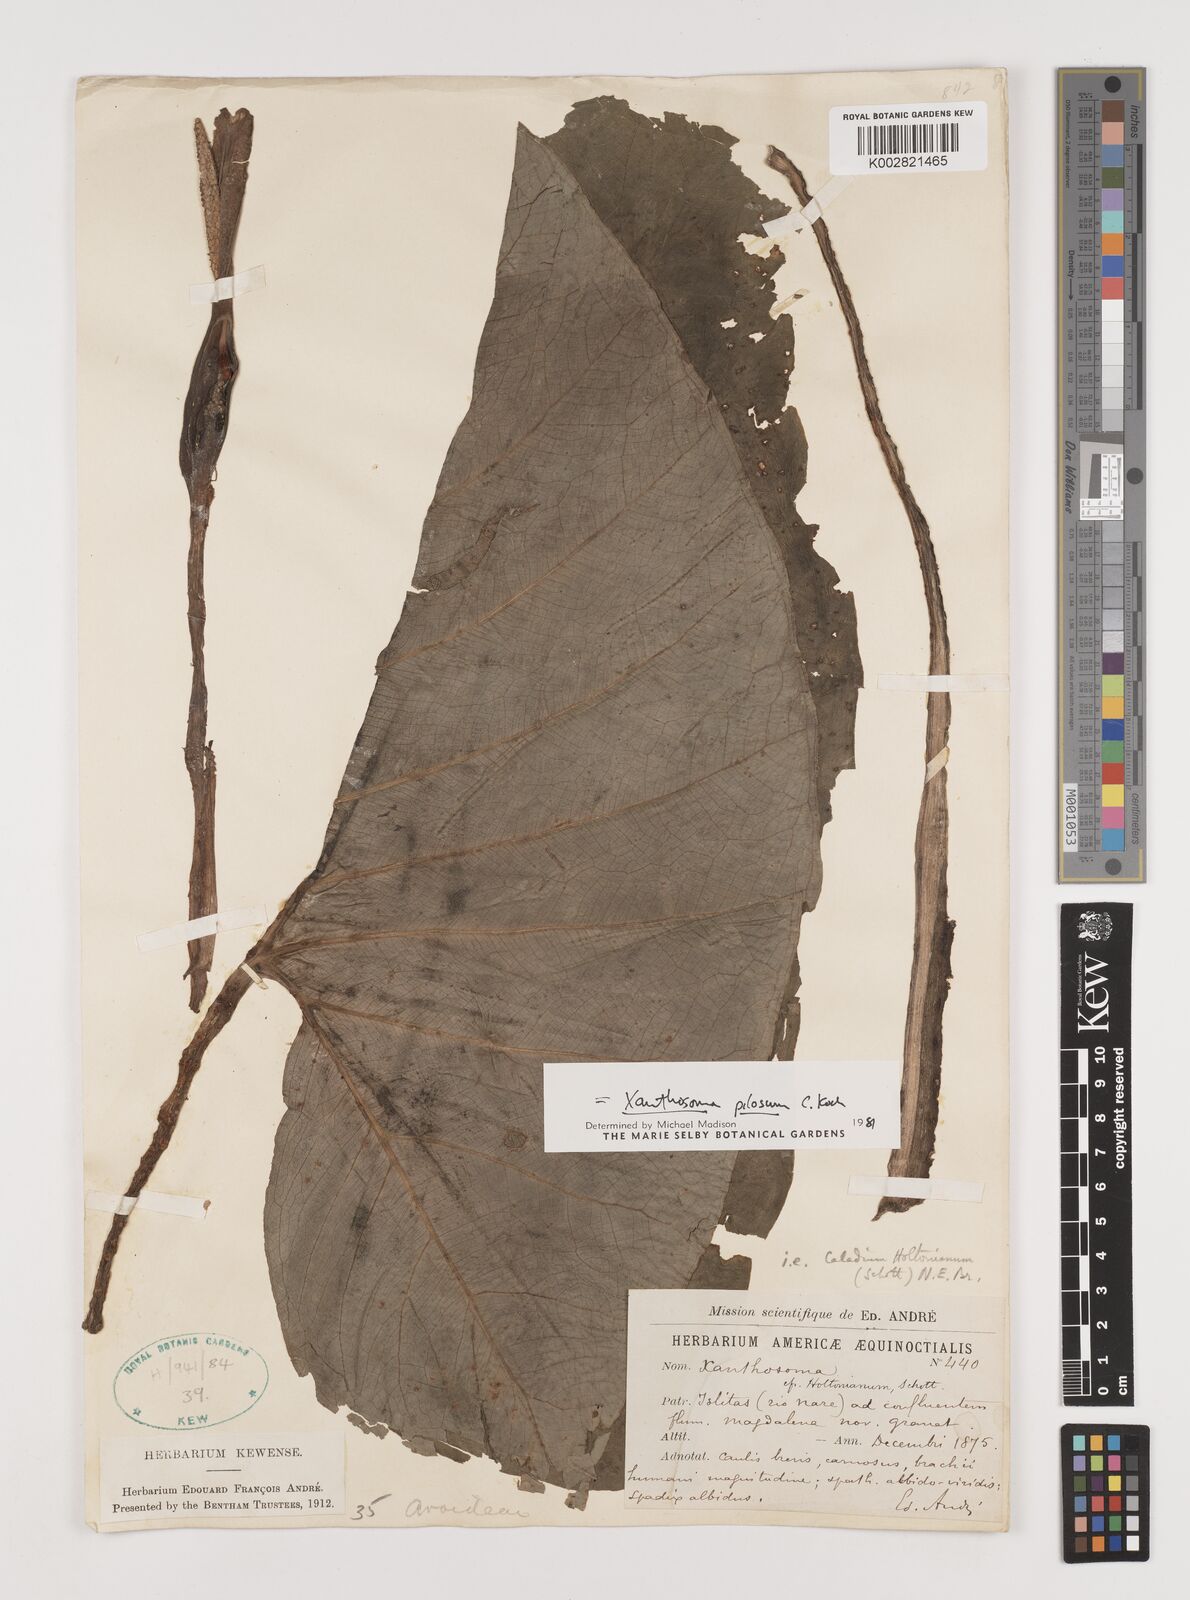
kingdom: Plantae
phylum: Tracheophyta
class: Liliopsida
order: Alismatales
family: Araceae
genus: Xanthosoma
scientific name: Xanthosoma mexicanum
